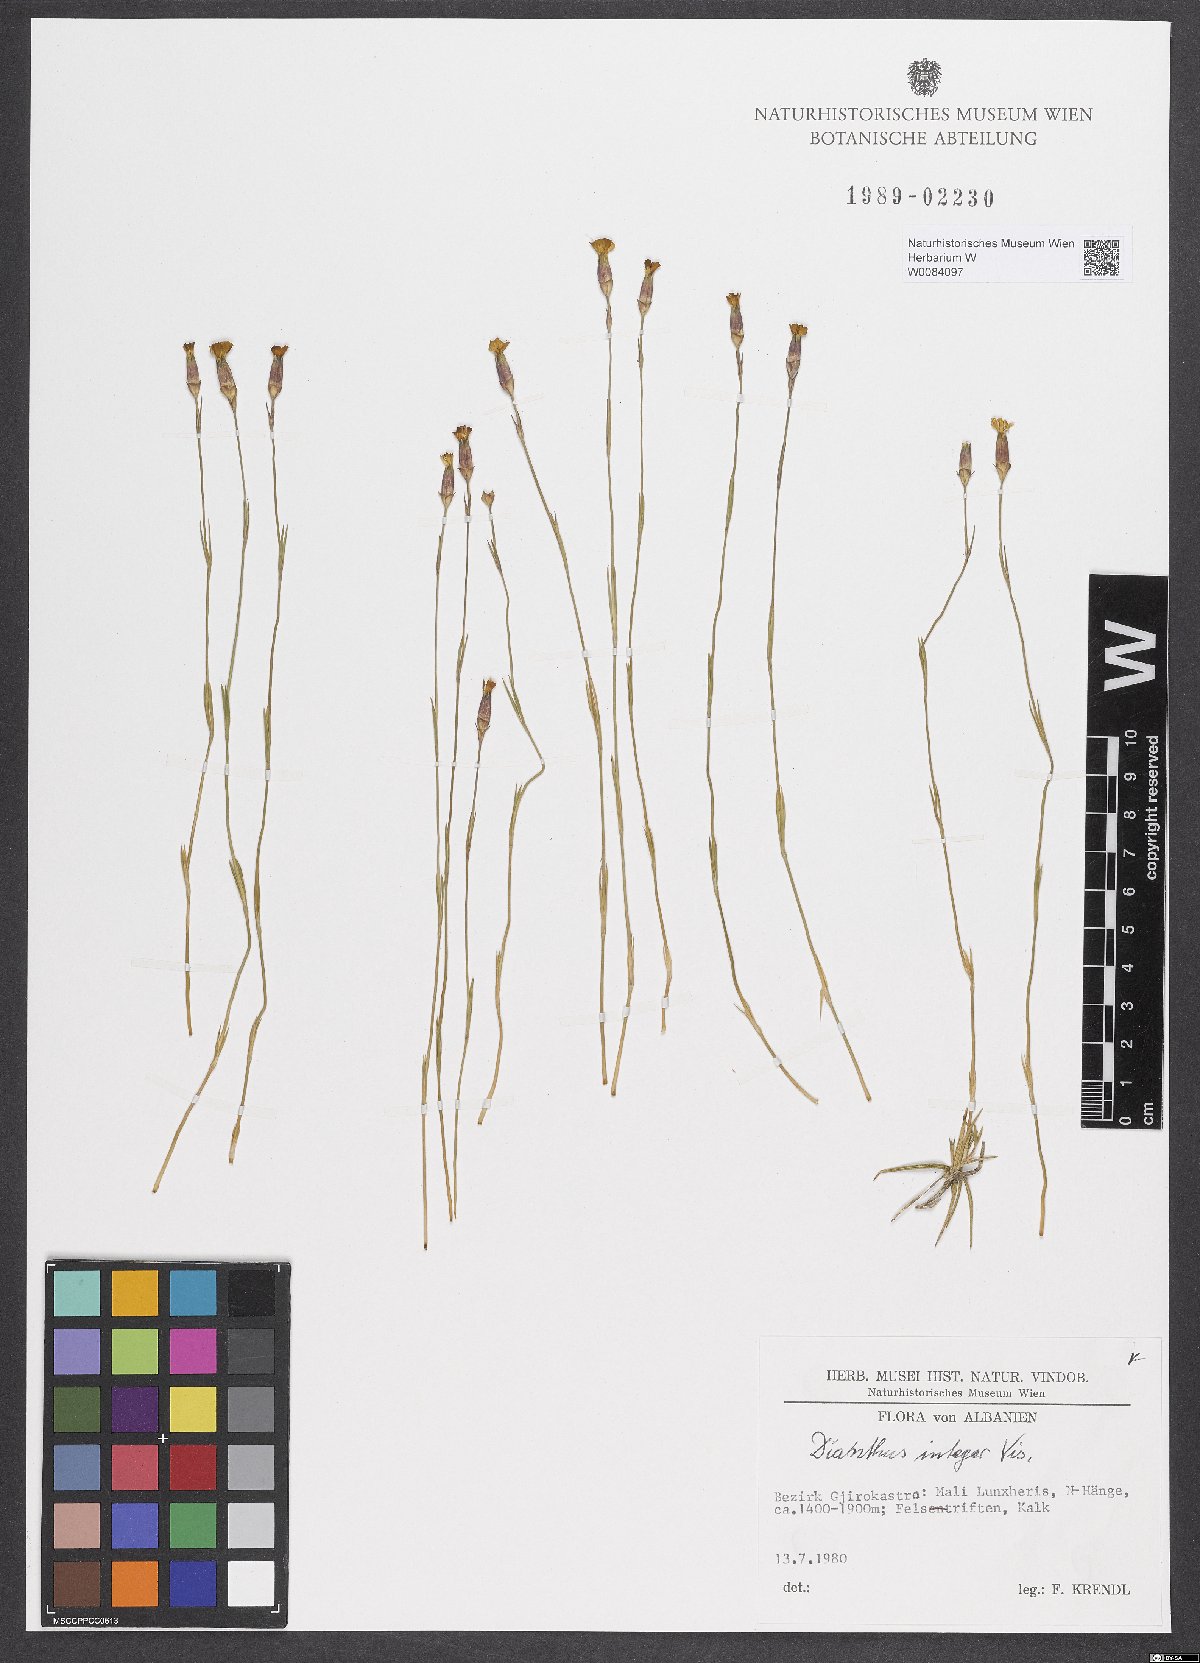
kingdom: Plantae
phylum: Tracheophyta
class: Magnoliopsida
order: Caryophyllales
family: Caryophyllaceae
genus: Dianthus
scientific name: Dianthus integer
